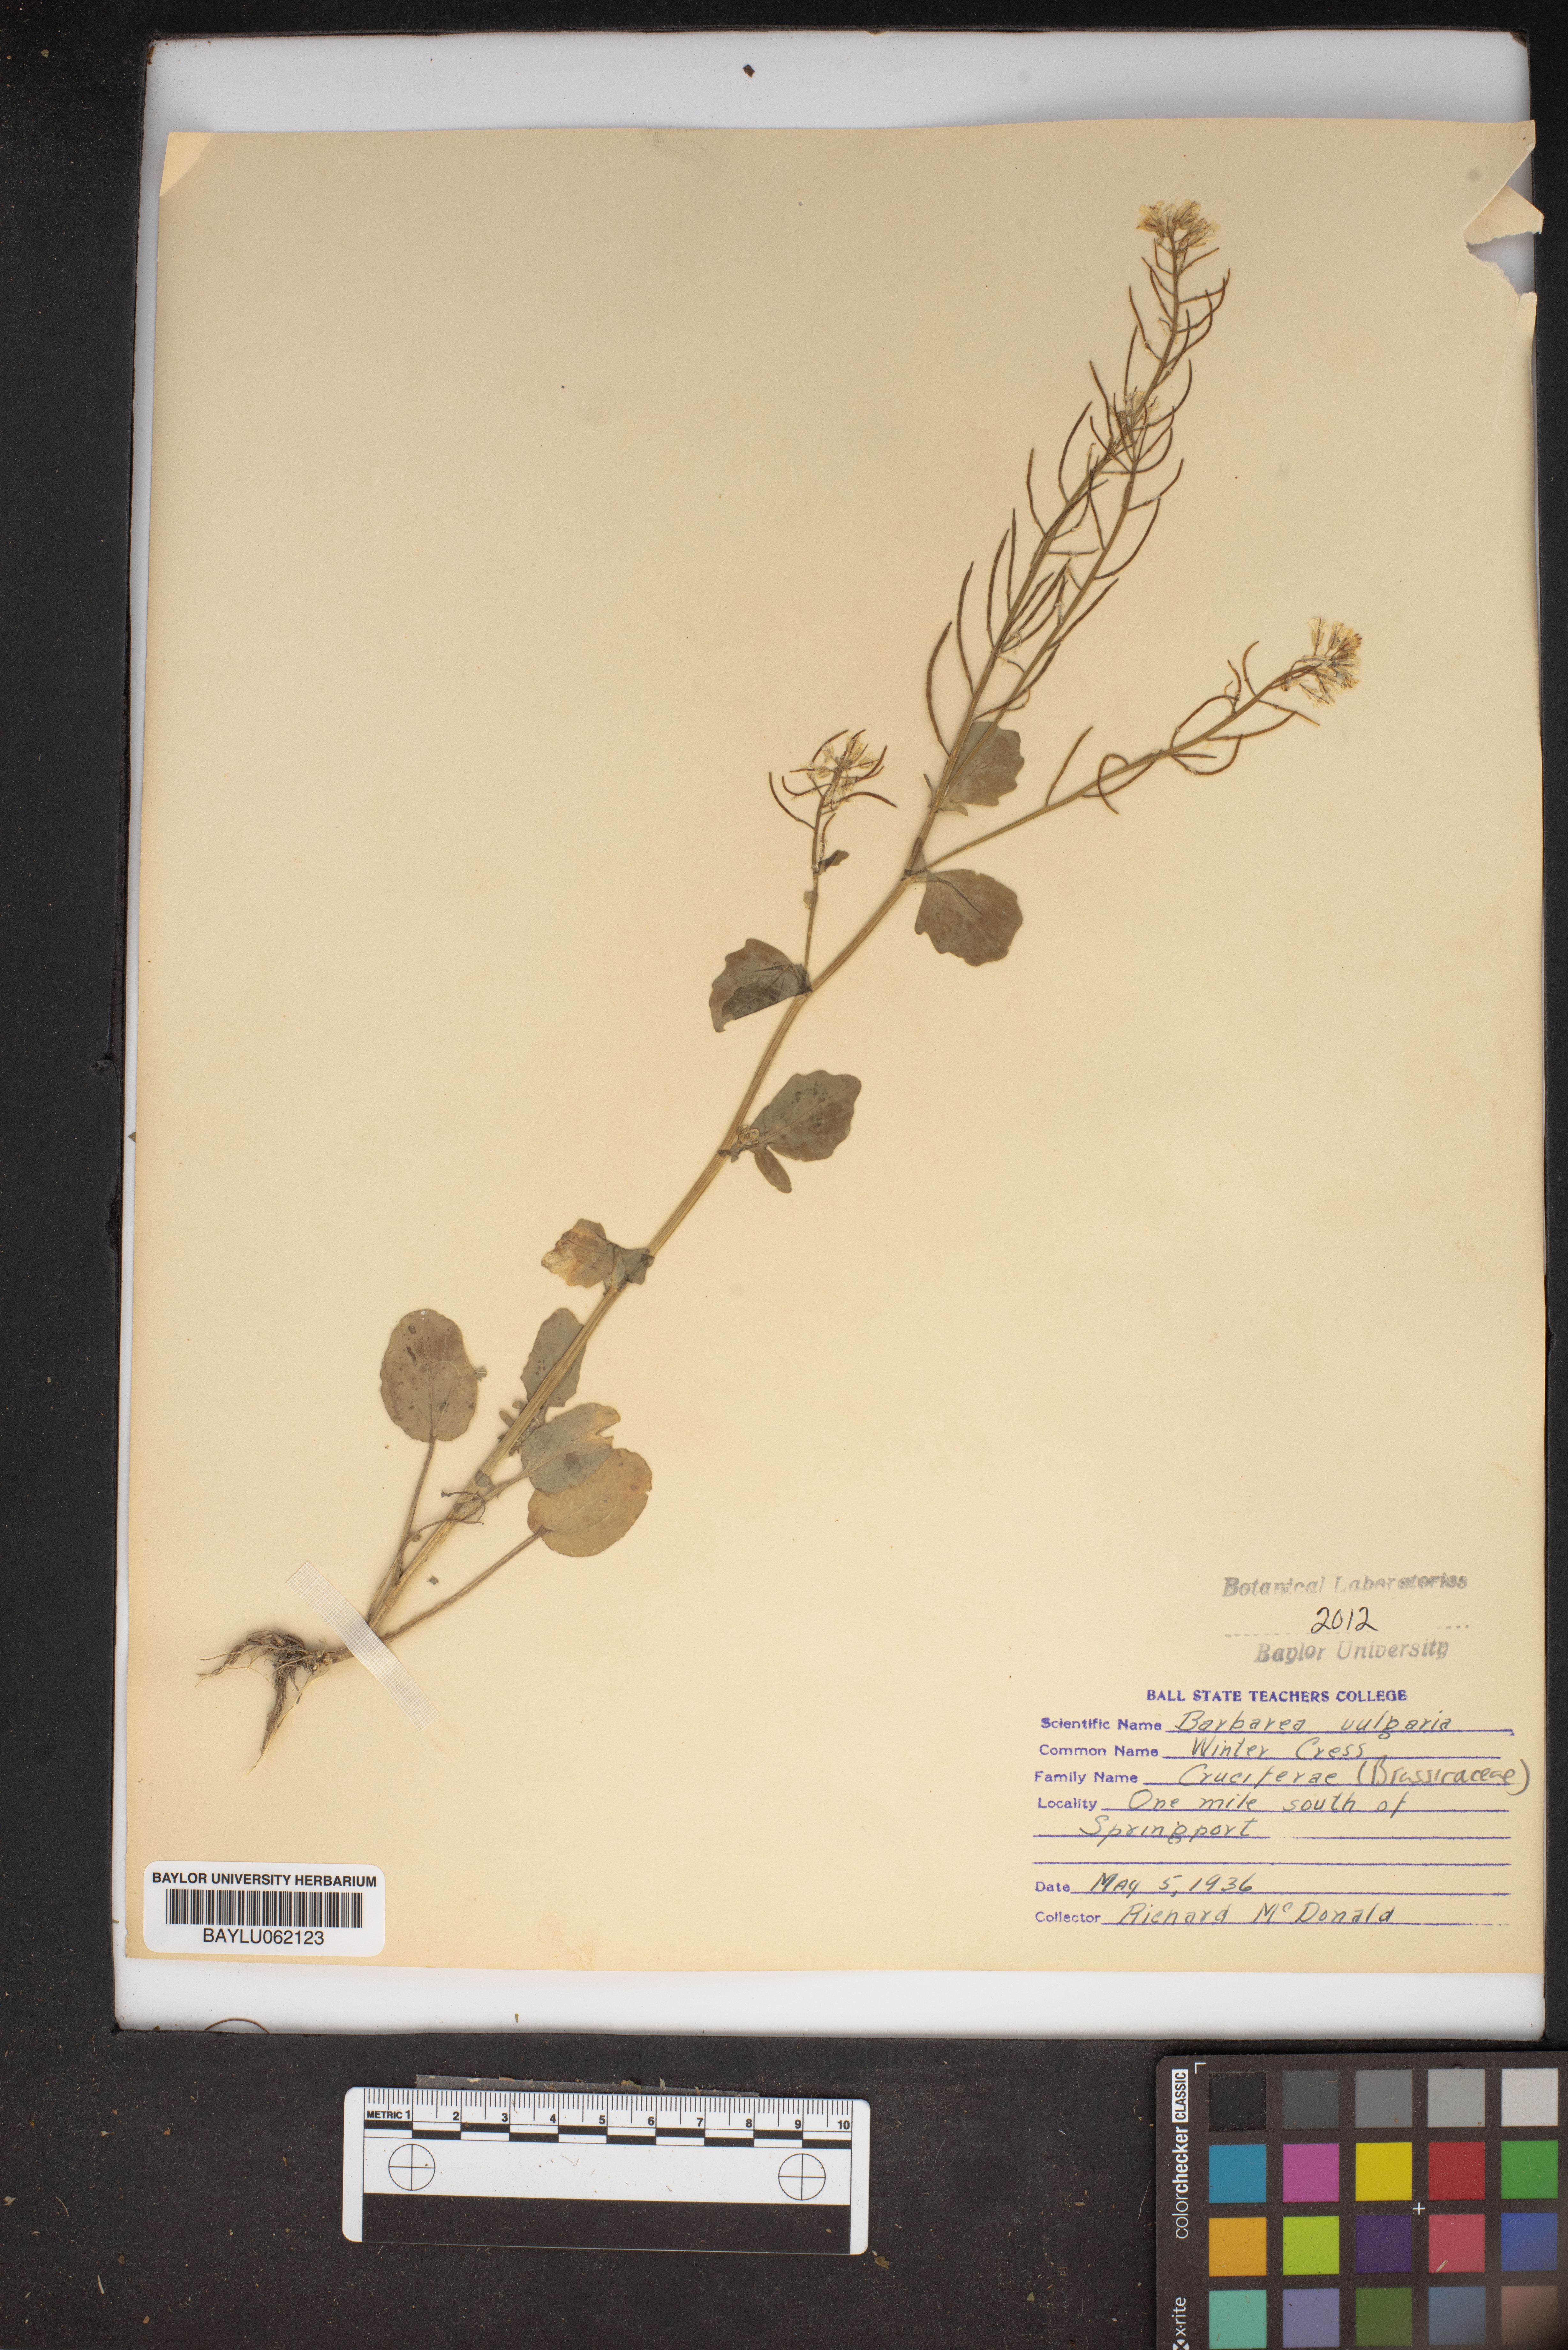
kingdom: Plantae
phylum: Tracheophyta
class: Magnoliopsida
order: Brassicales
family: Brassicaceae
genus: Barbarea
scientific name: Barbarea vulgaris
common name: Cressy-greens
